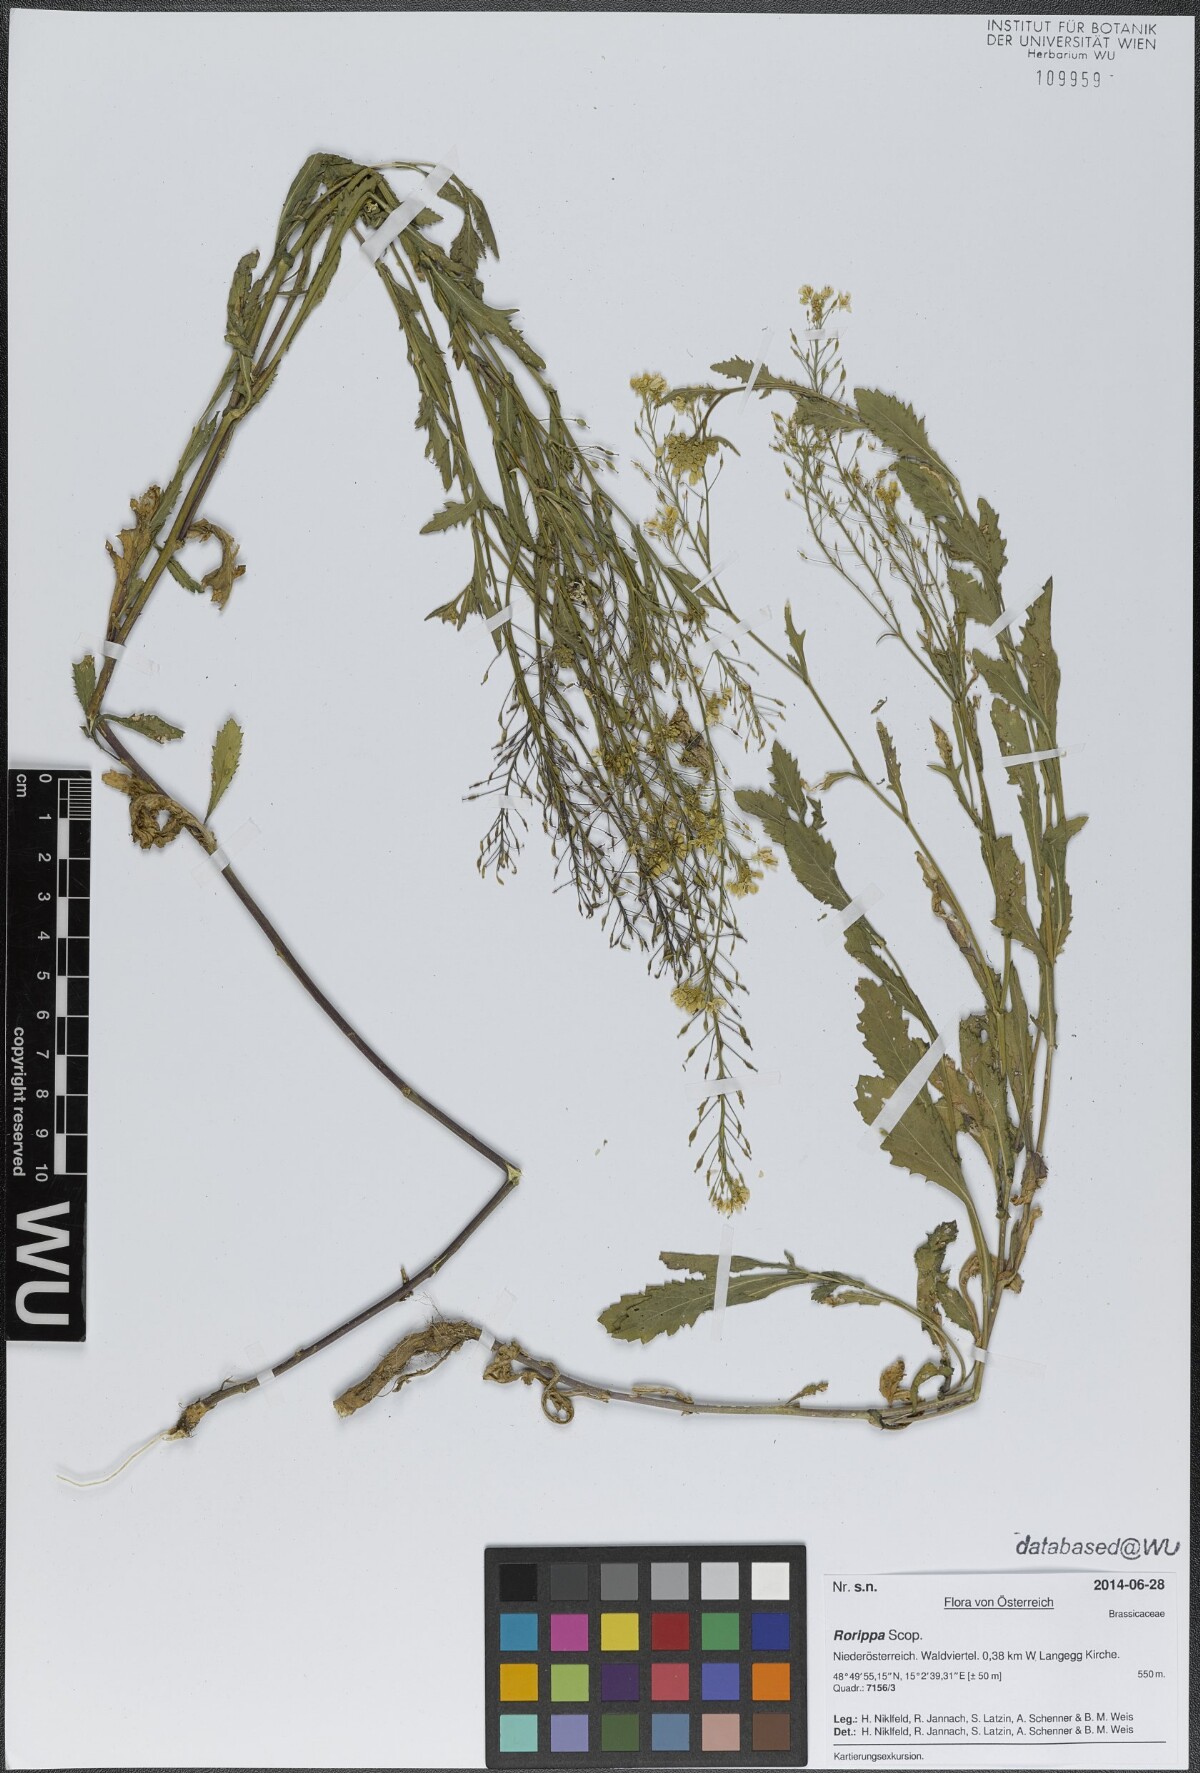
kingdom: Plantae
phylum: Tracheophyta
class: Magnoliopsida
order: Brassicales
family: Brassicaceae
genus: Rorippa
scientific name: Rorippa
